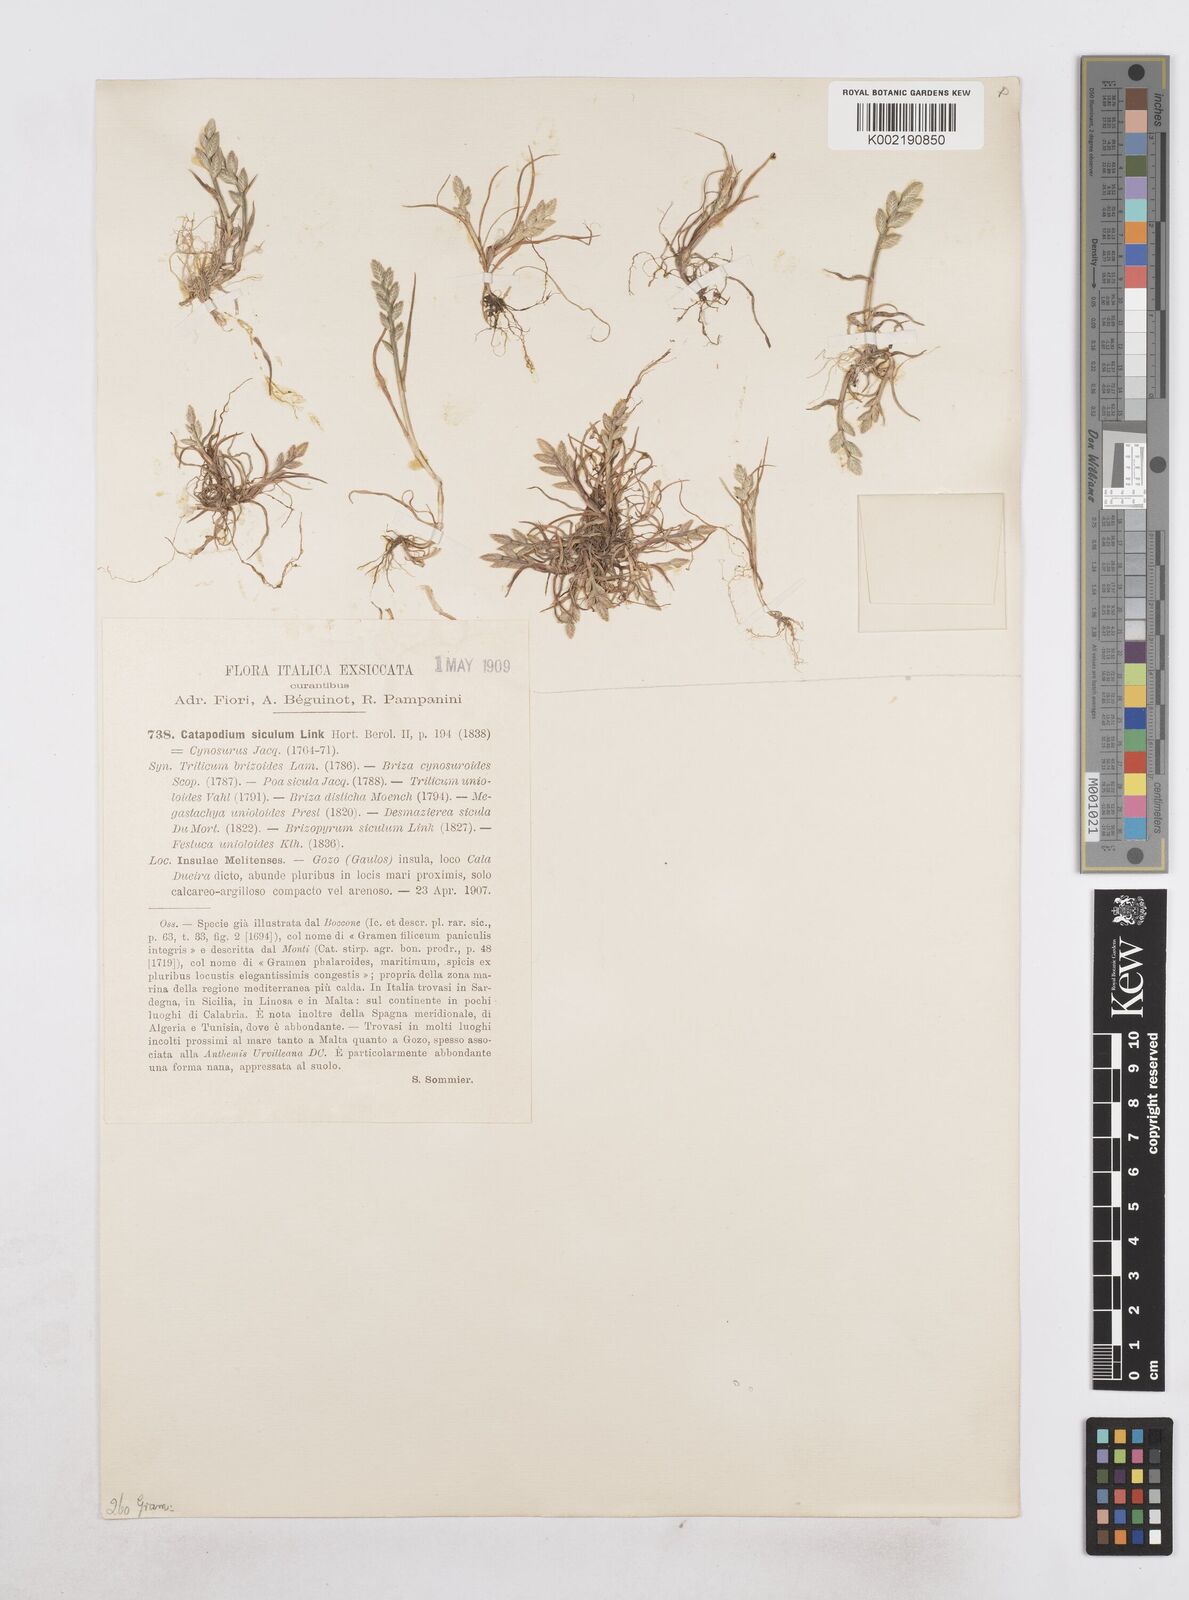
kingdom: Plantae
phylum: Tracheophyta
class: Liliopsida
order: Poales
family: Poaceae
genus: Desmazeria
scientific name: Desmazeria sicula
